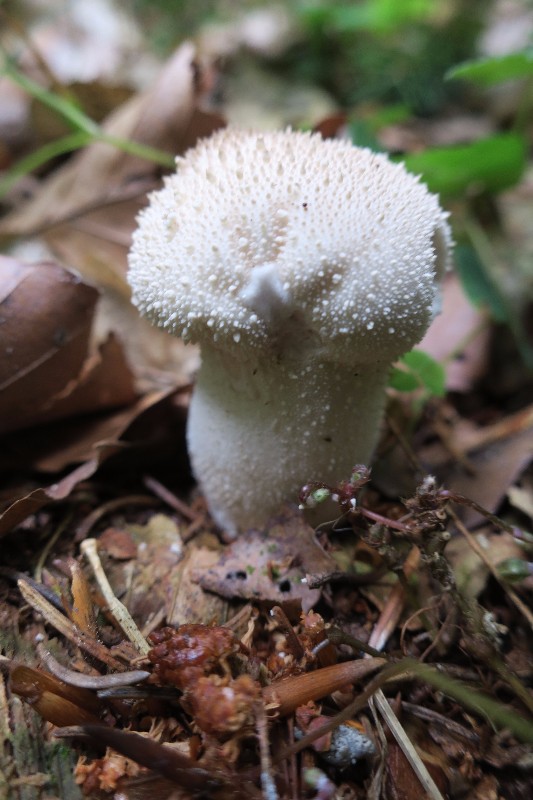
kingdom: Fungi
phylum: Basidiomycota
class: Agaricomycetes
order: Agaricales
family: Lycoperdaceae
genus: Lycoperdon
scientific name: Lycoperdon perlatum
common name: krystal-støvbold
